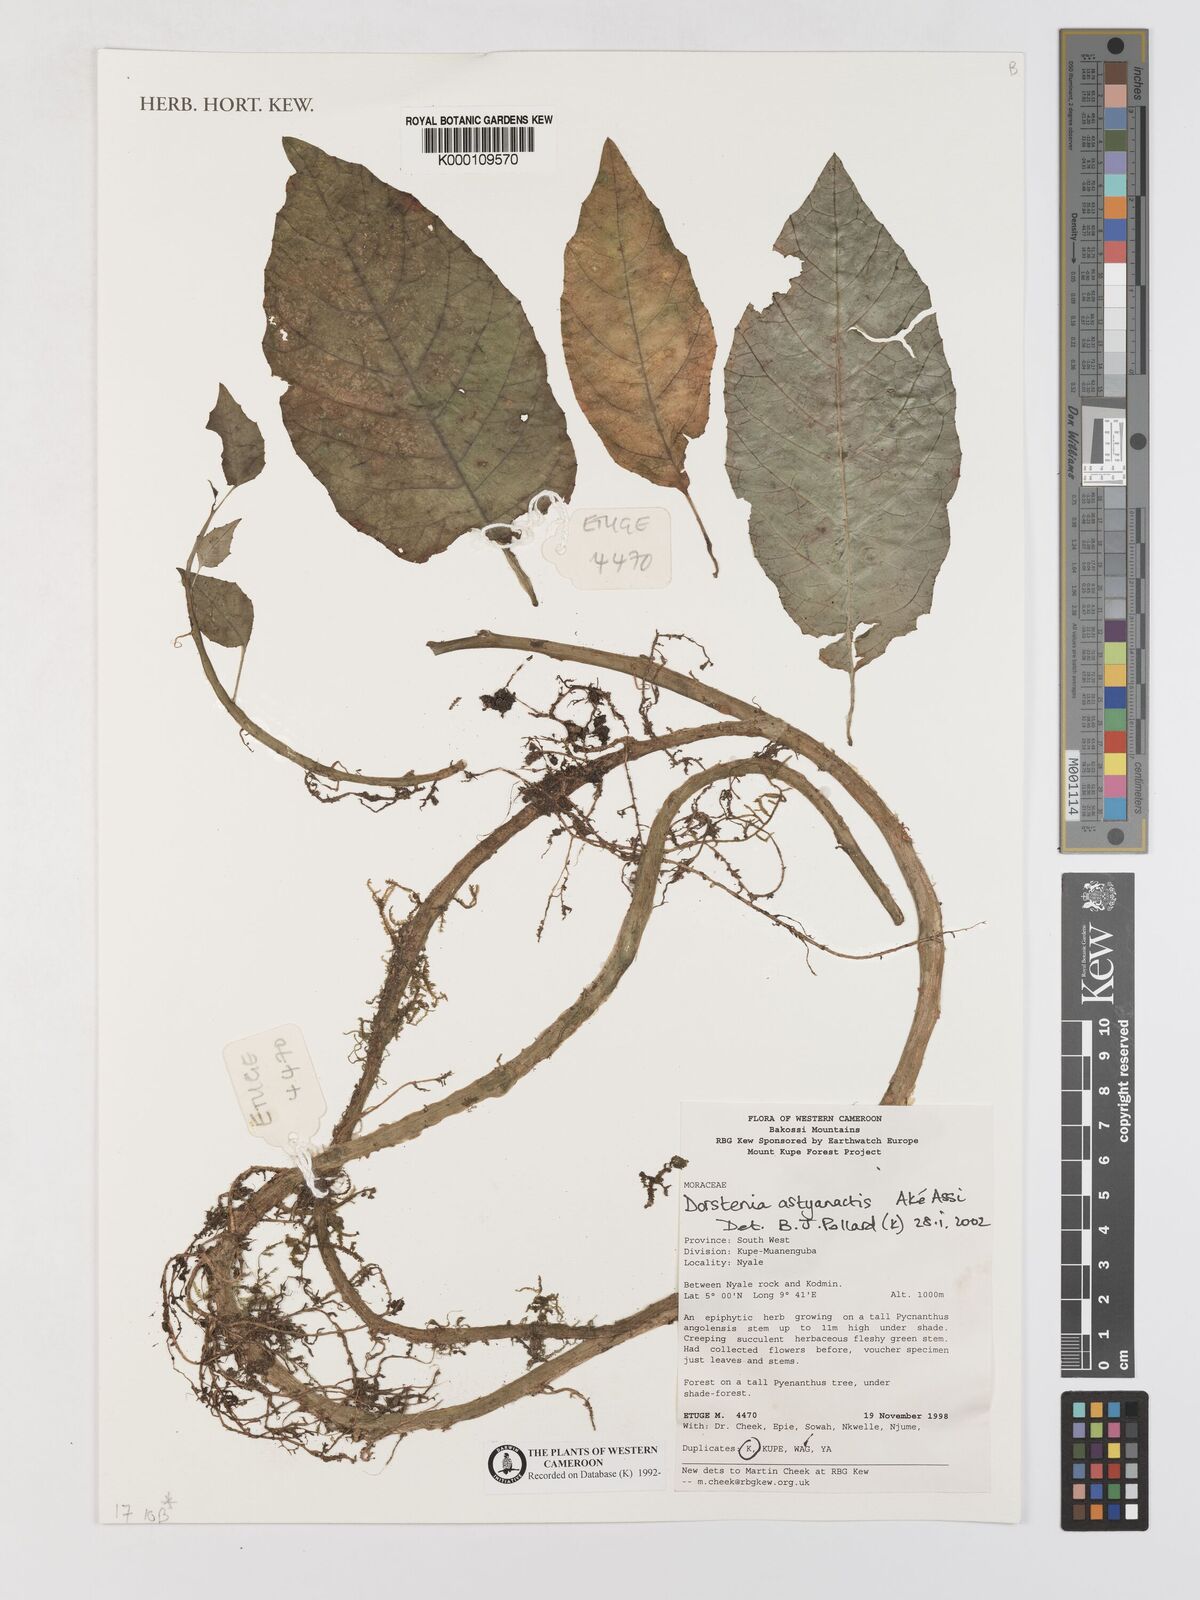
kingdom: Plantae
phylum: Tracheophyta
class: Magnoliopsida
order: Rosales
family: Moraceae
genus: Dorstenia
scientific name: Dorstenia
